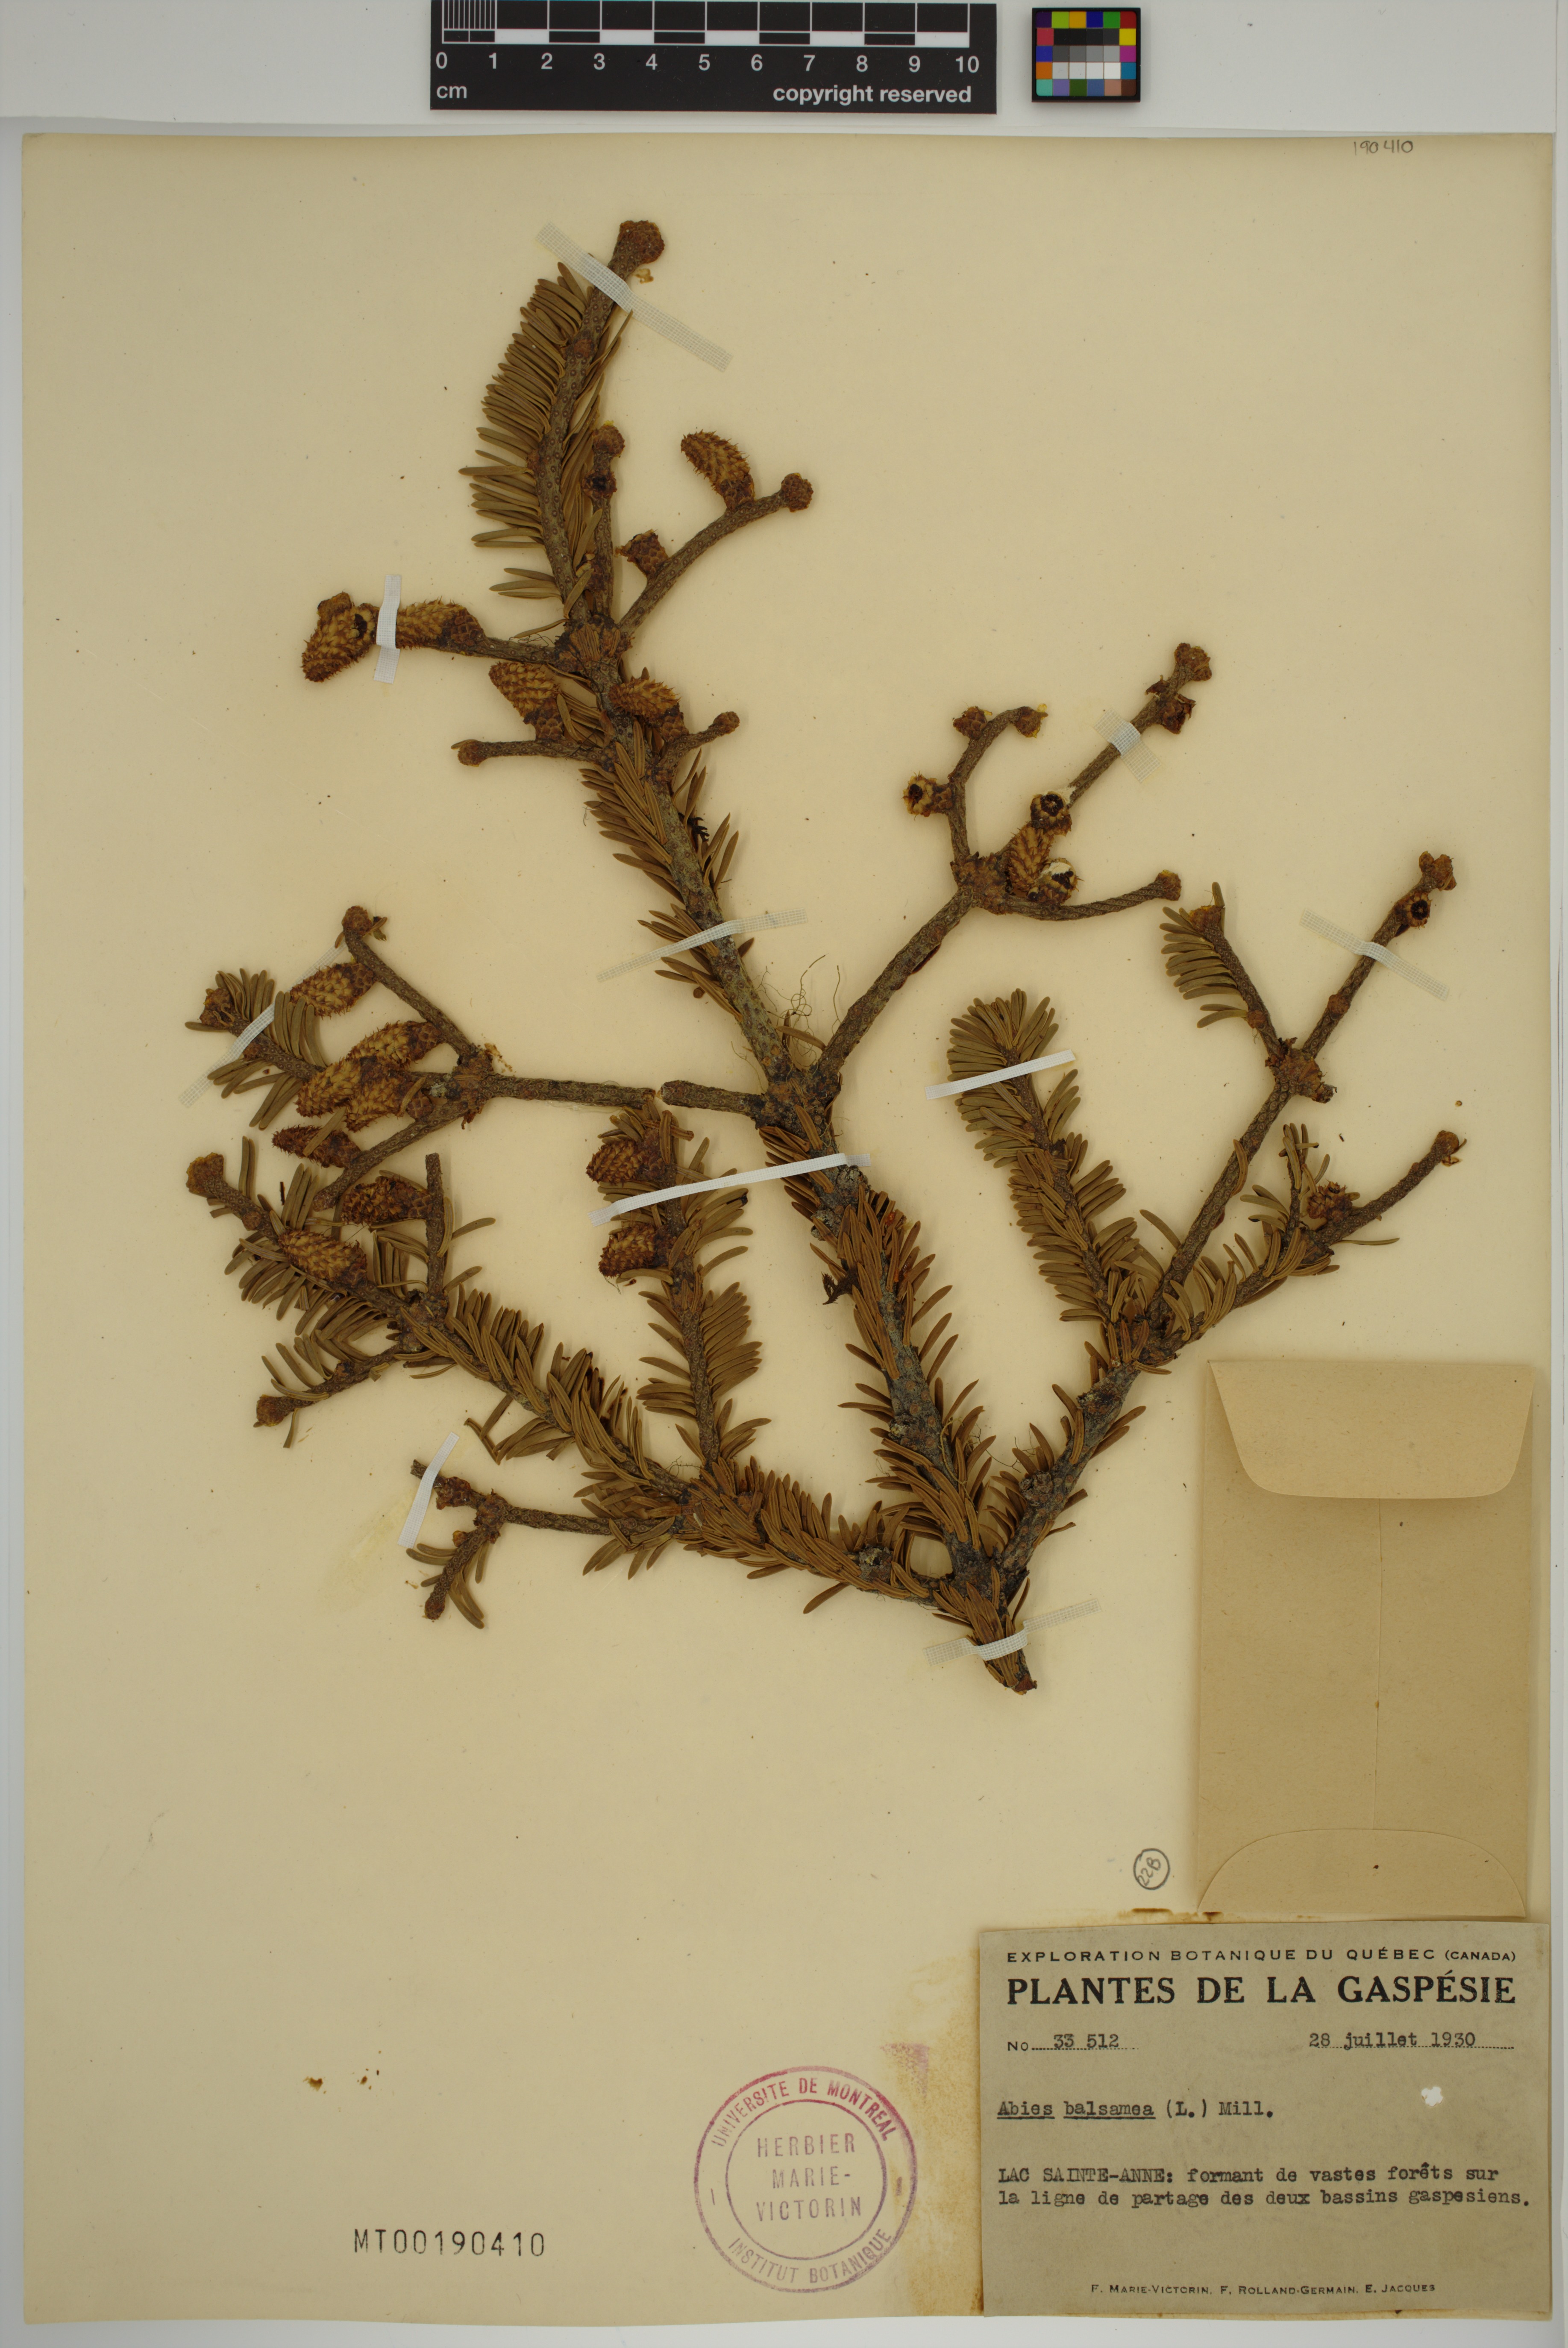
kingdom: Plantae
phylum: Tracheophyta
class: Pinopsida
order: Pinales
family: Pinaceae
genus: Abies
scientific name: Abies balsamea
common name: Balsam fir
